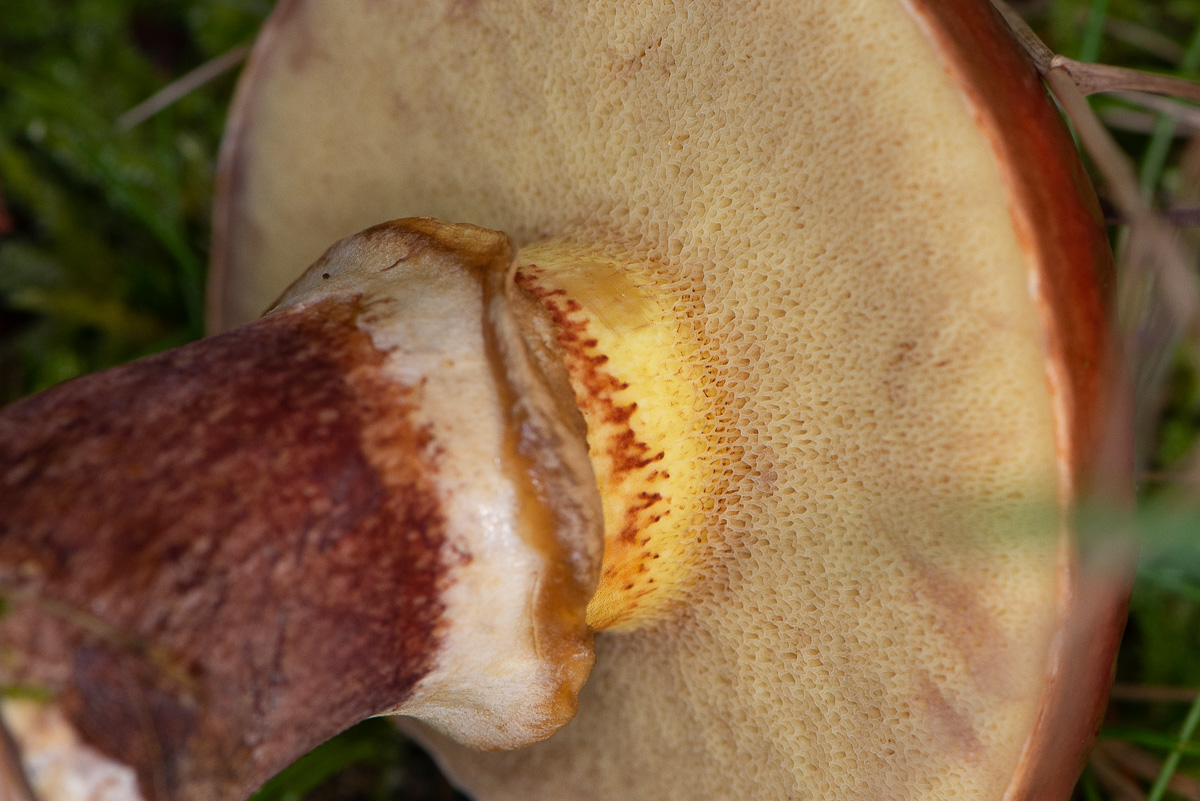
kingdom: Fungi
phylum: Basidiomycota
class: Agaricomycetes
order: Boletales
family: Suillaceae
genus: Suillus
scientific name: Suillus grevillei
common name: Larch bolete
